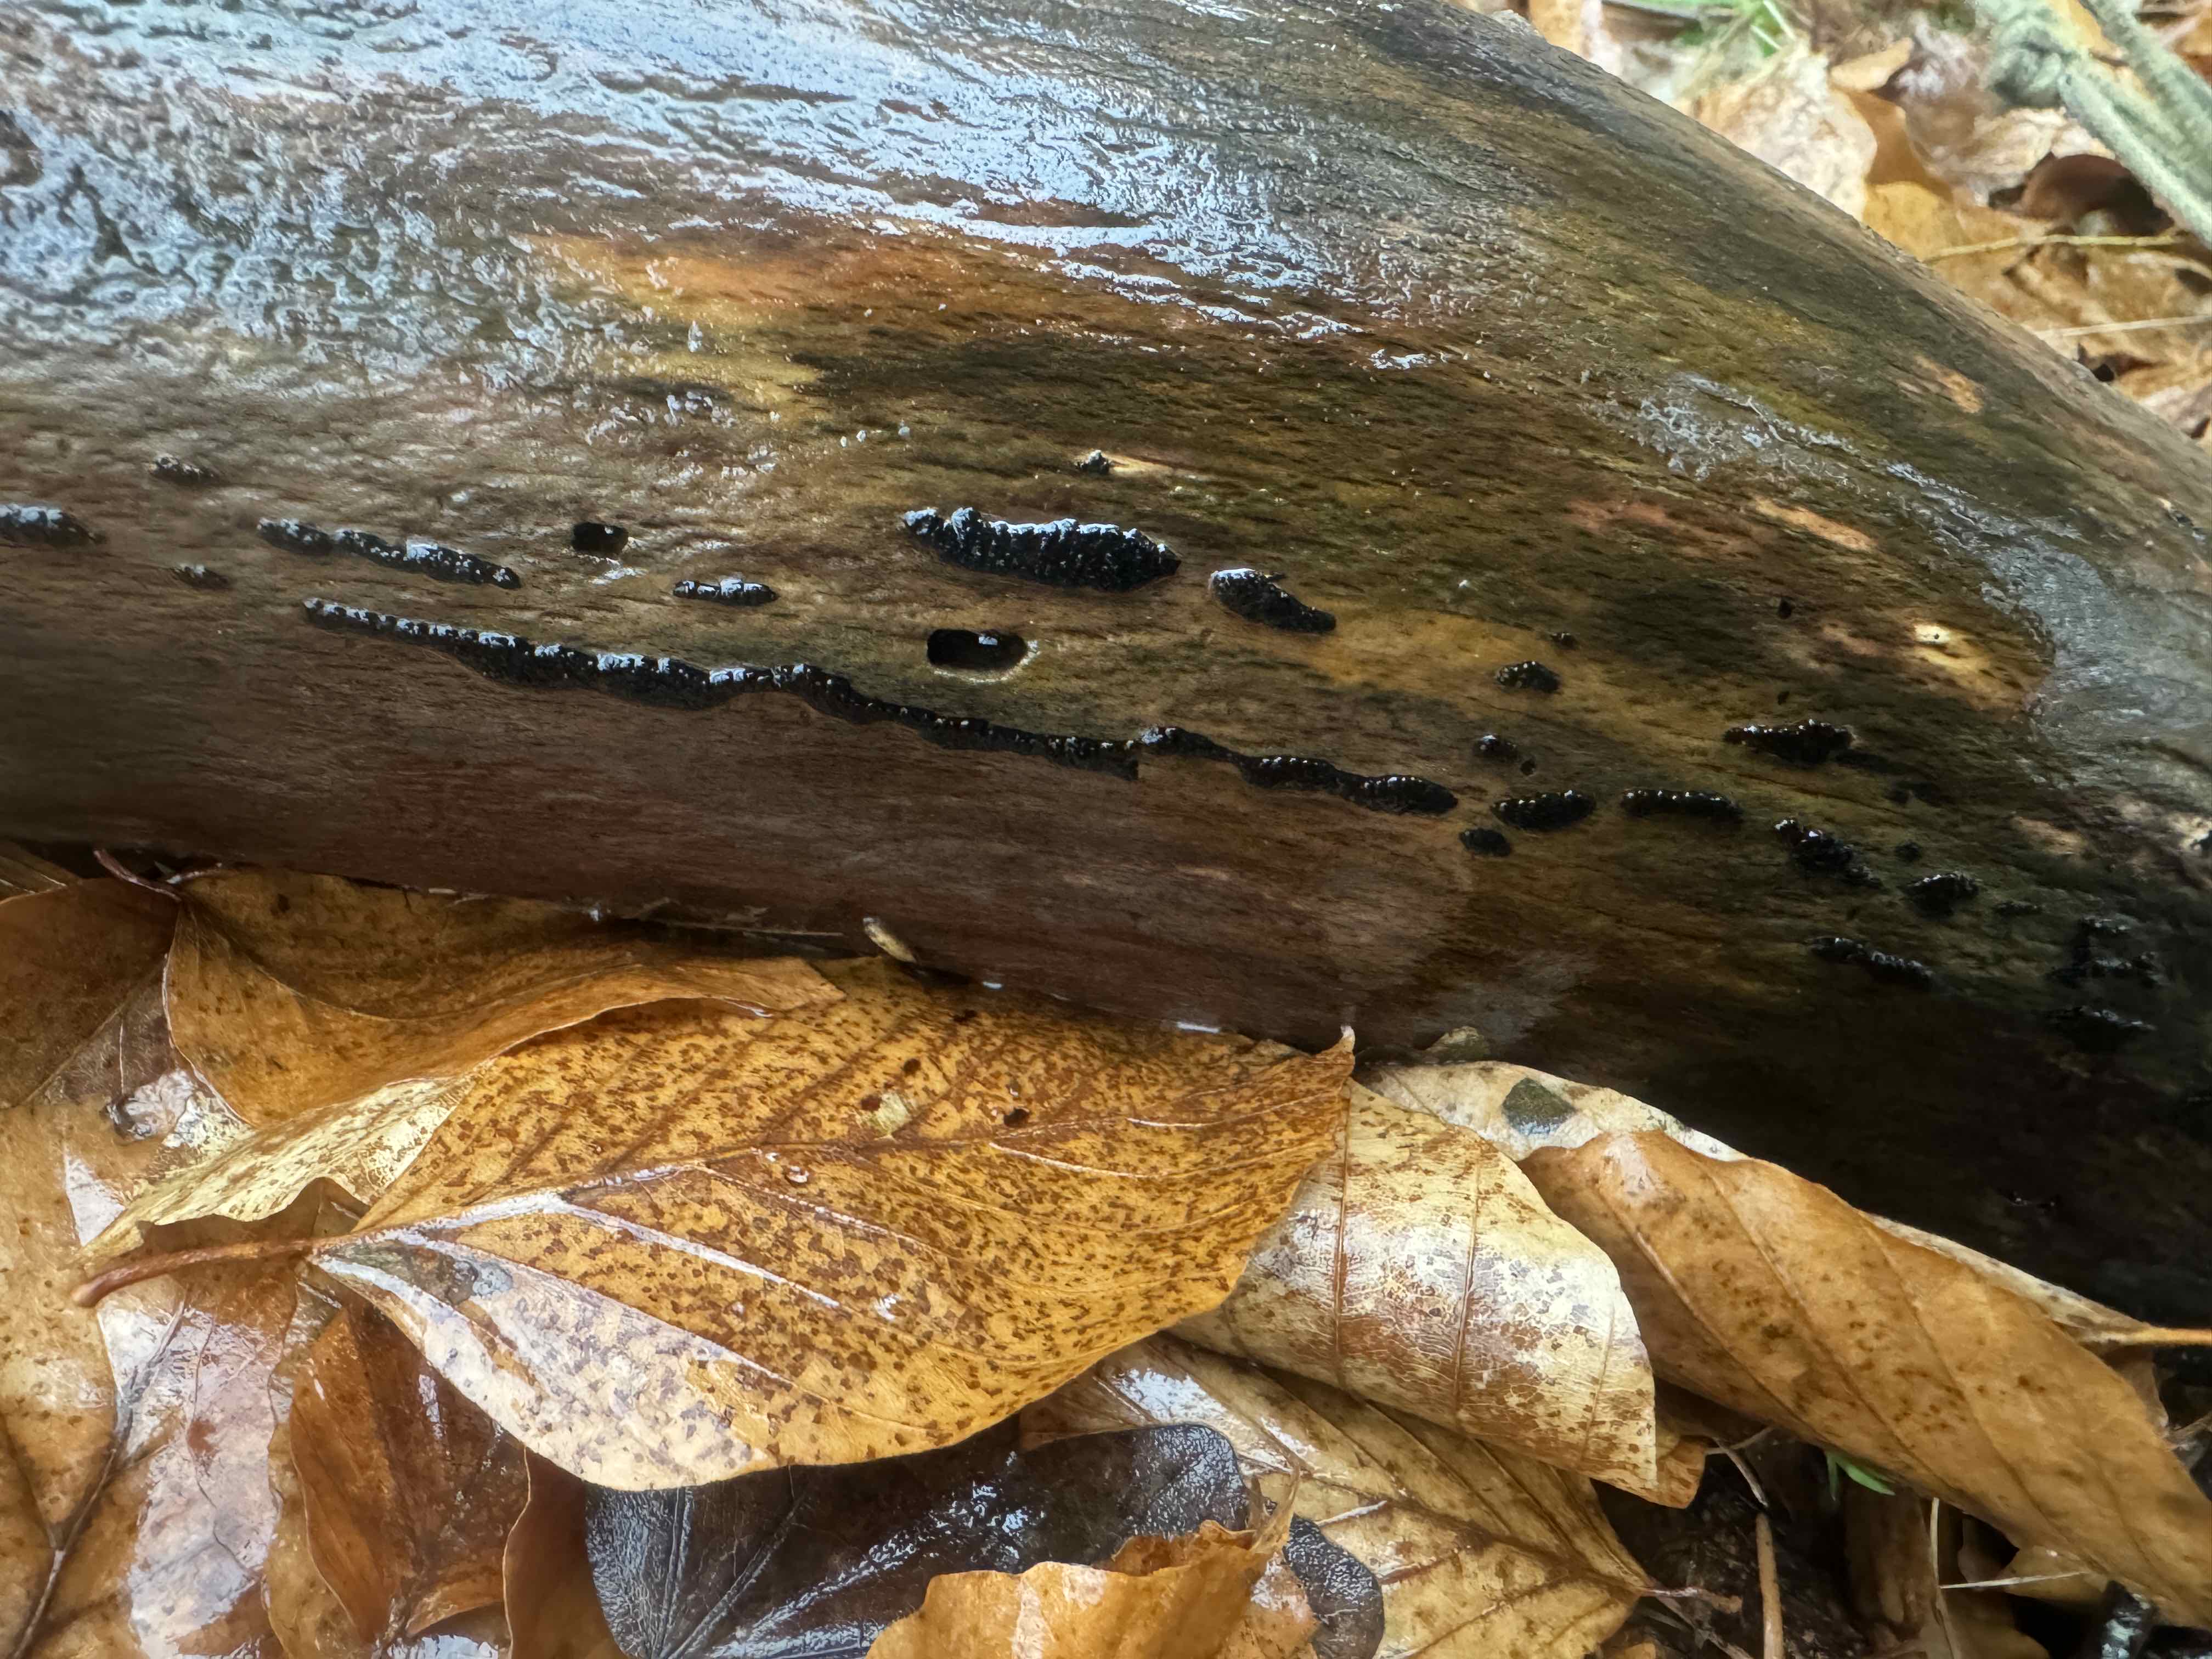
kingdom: Fungi
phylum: Ascomycota
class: Sordariomycetes
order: Xylariales
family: Xylariaceae
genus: Nemania
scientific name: Nemania
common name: kuldyne
